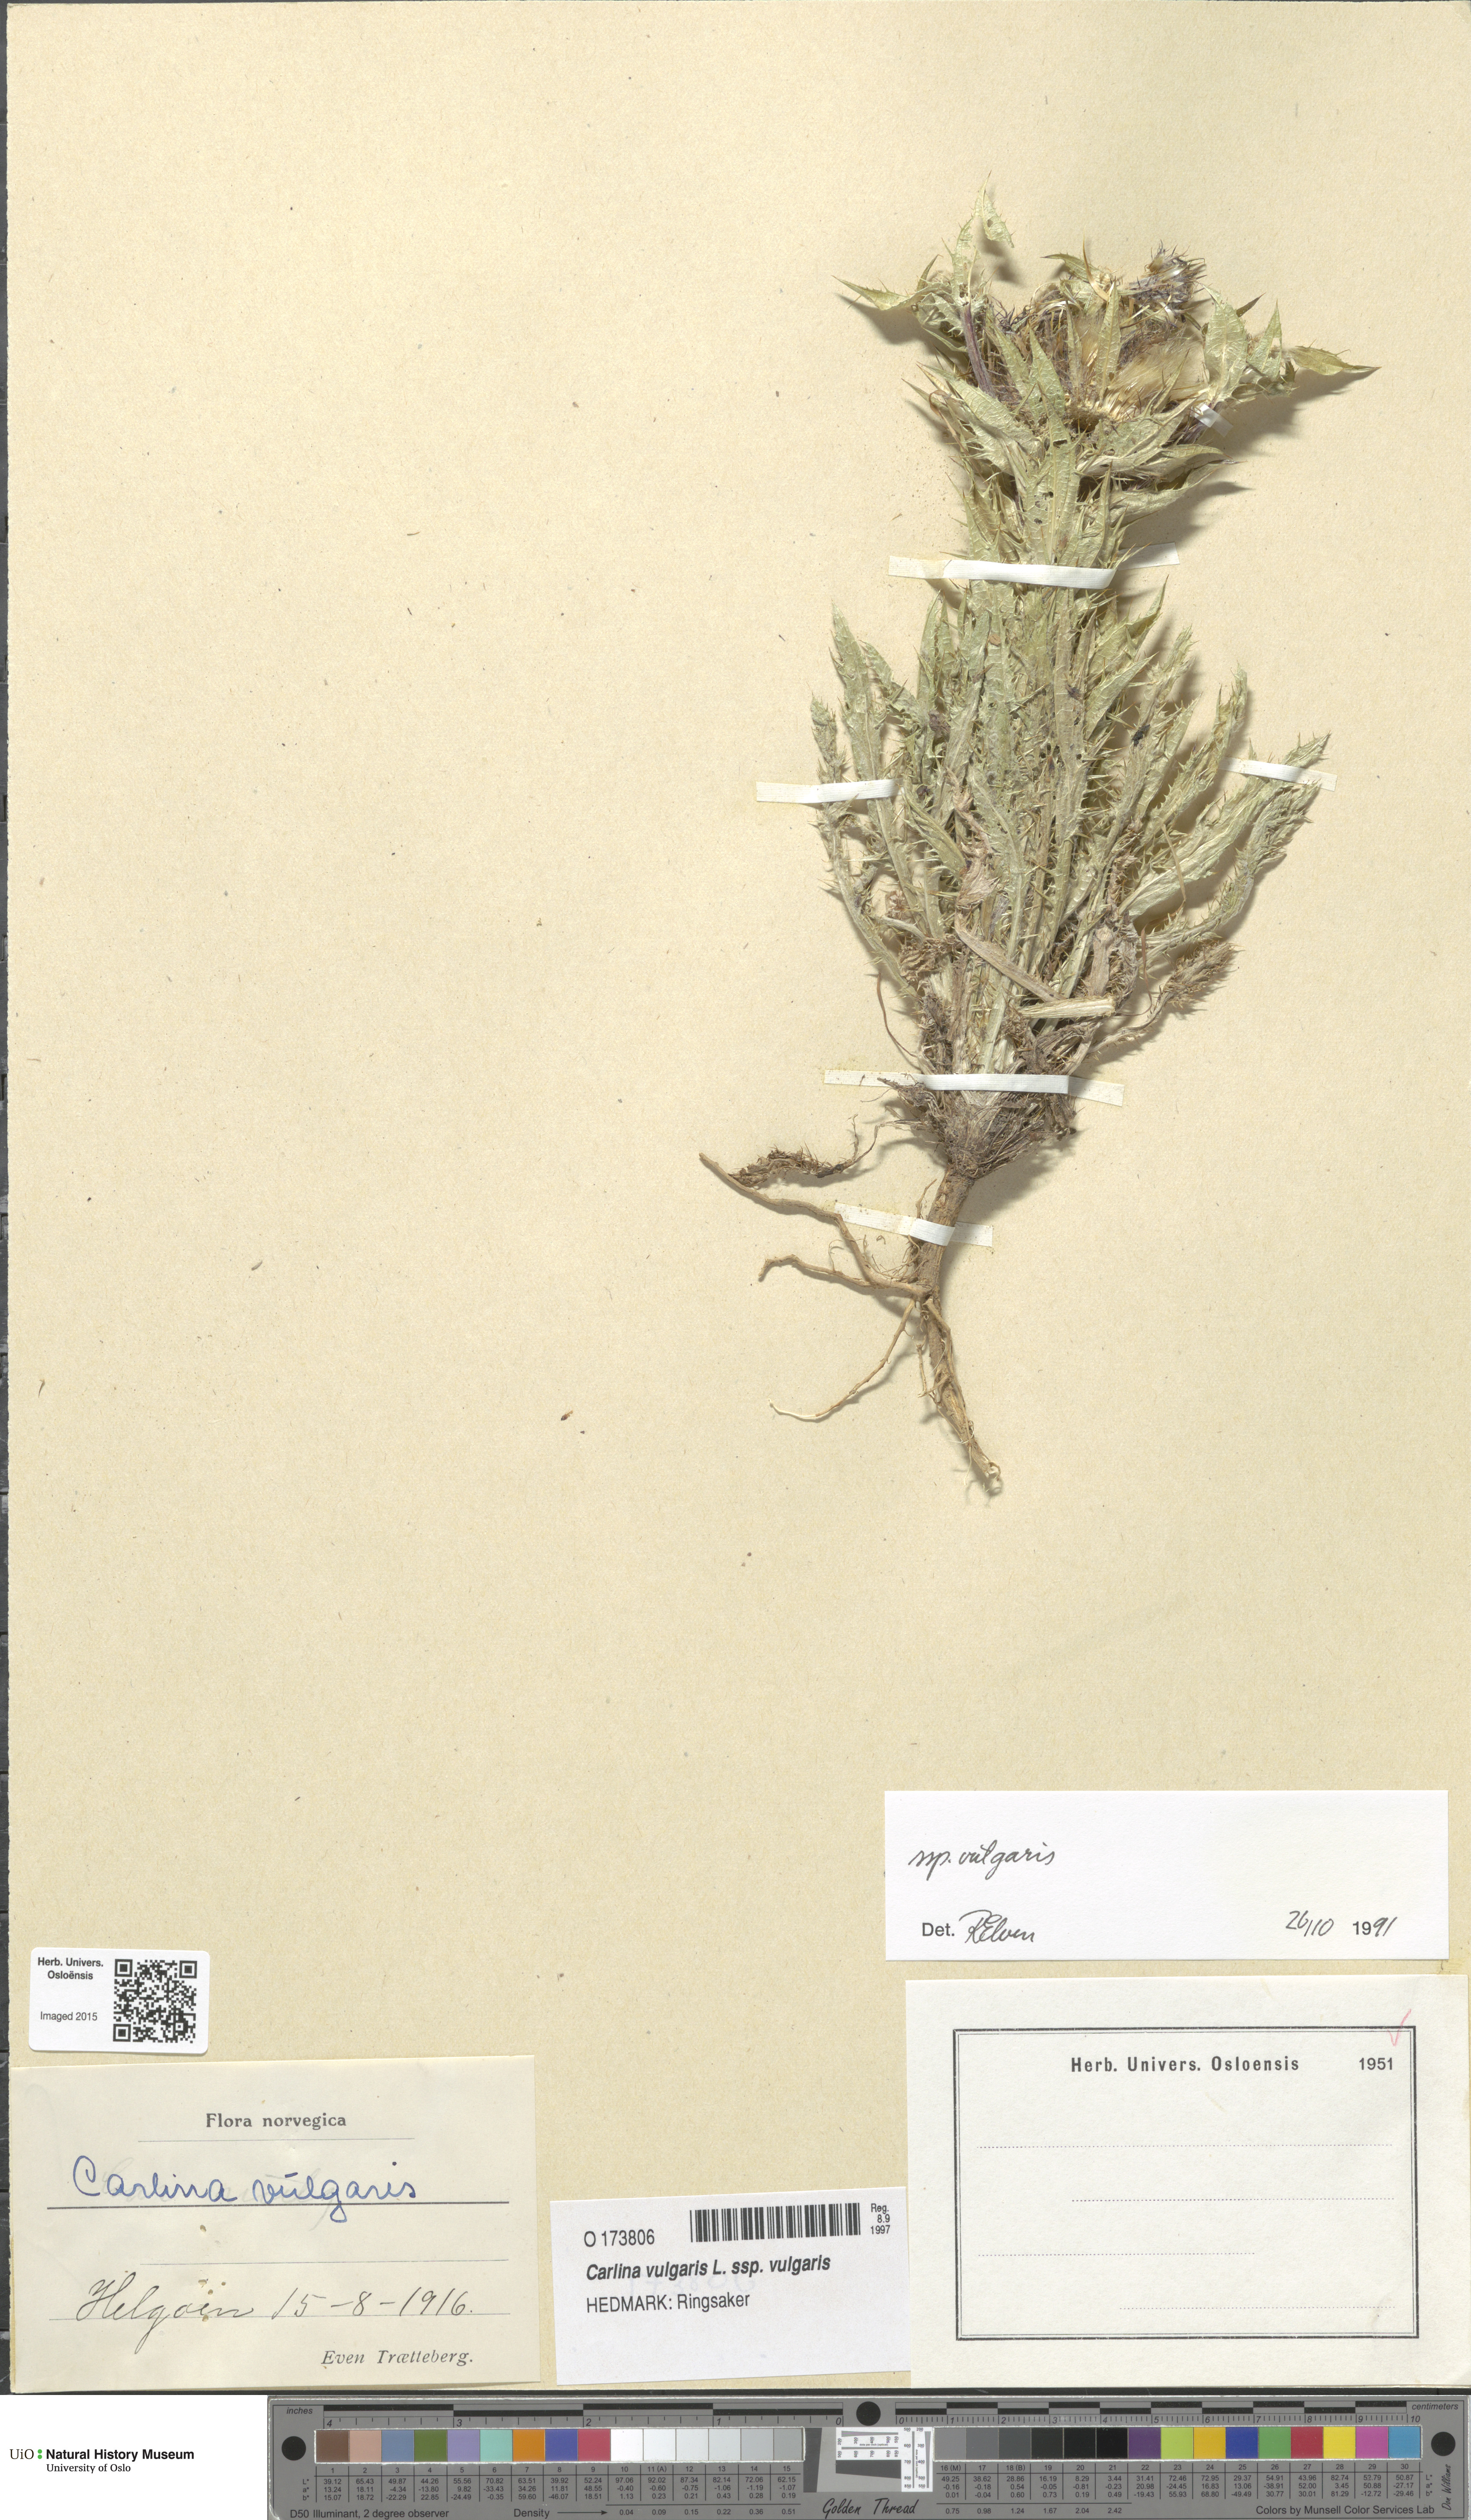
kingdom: Plantae
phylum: Tracheophyta
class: Magnoliopsida
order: Asterales
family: Asteraceae
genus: Carlina
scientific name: Carlina vulgaris
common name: Carline thistle
